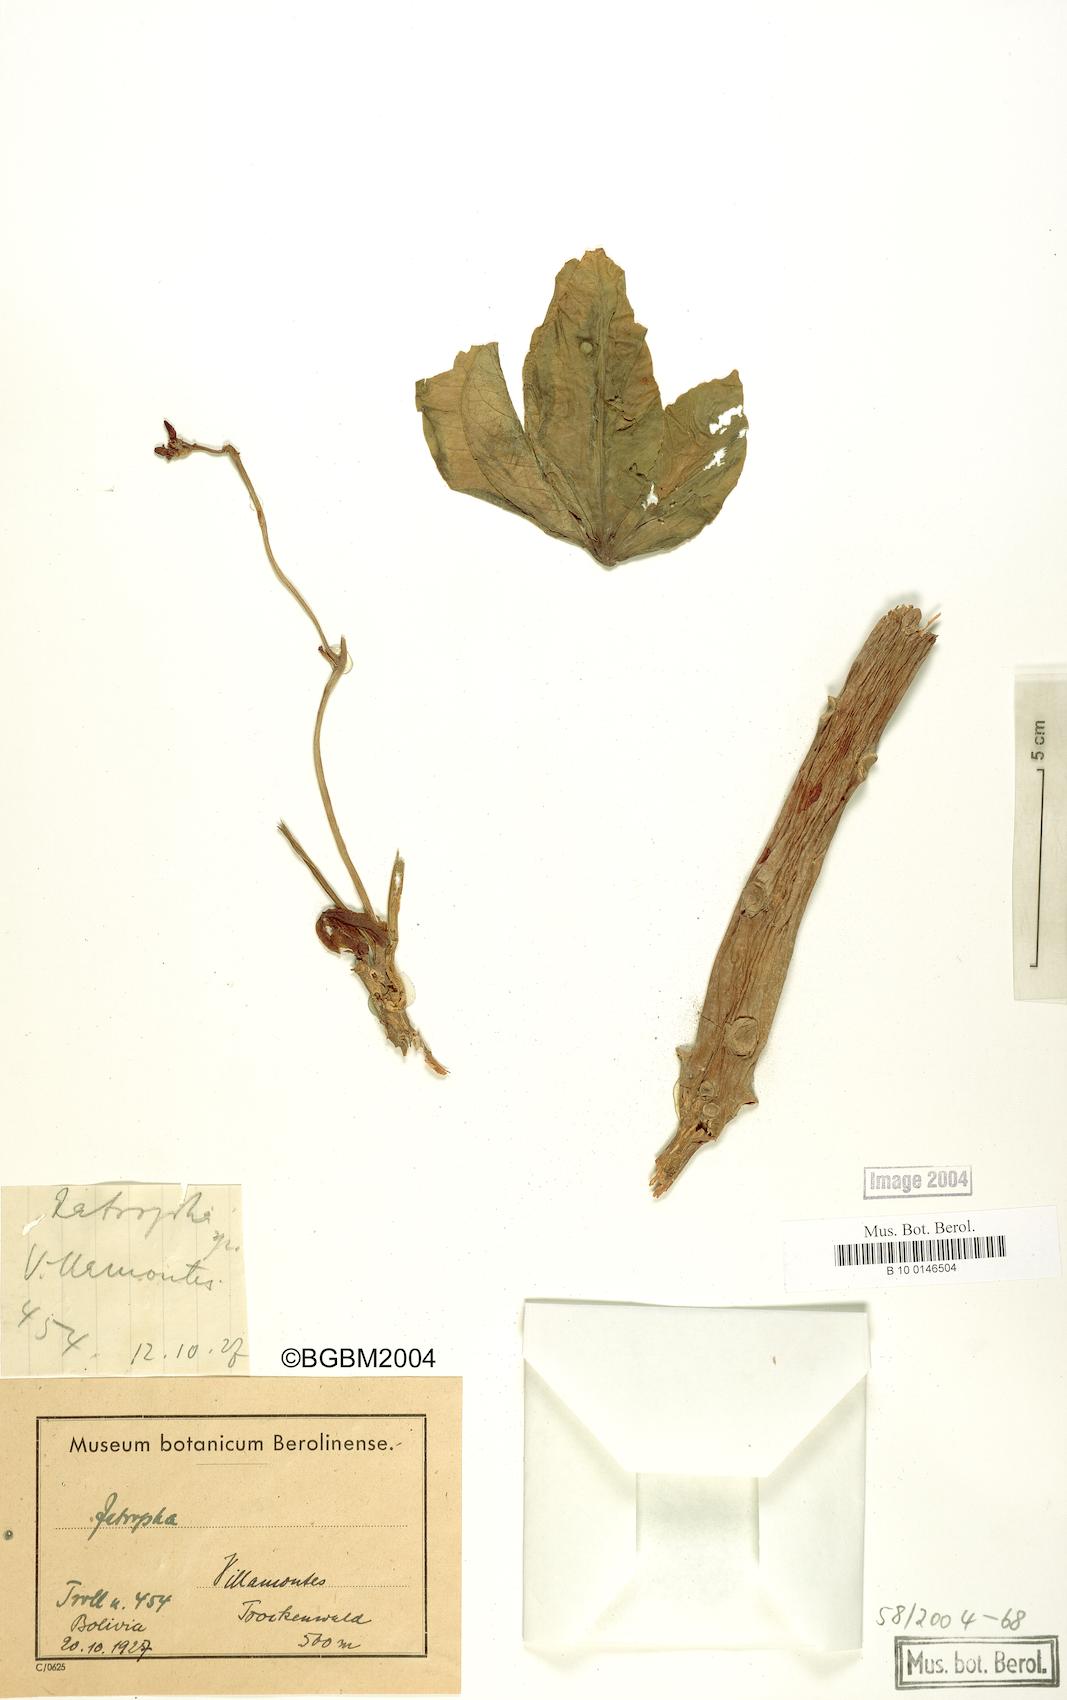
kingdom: Plantae
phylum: Tracheophyta
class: Magnoliopsida
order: Malpighiales
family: Euphorbiaceae
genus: Jatropha
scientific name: Jatropha
